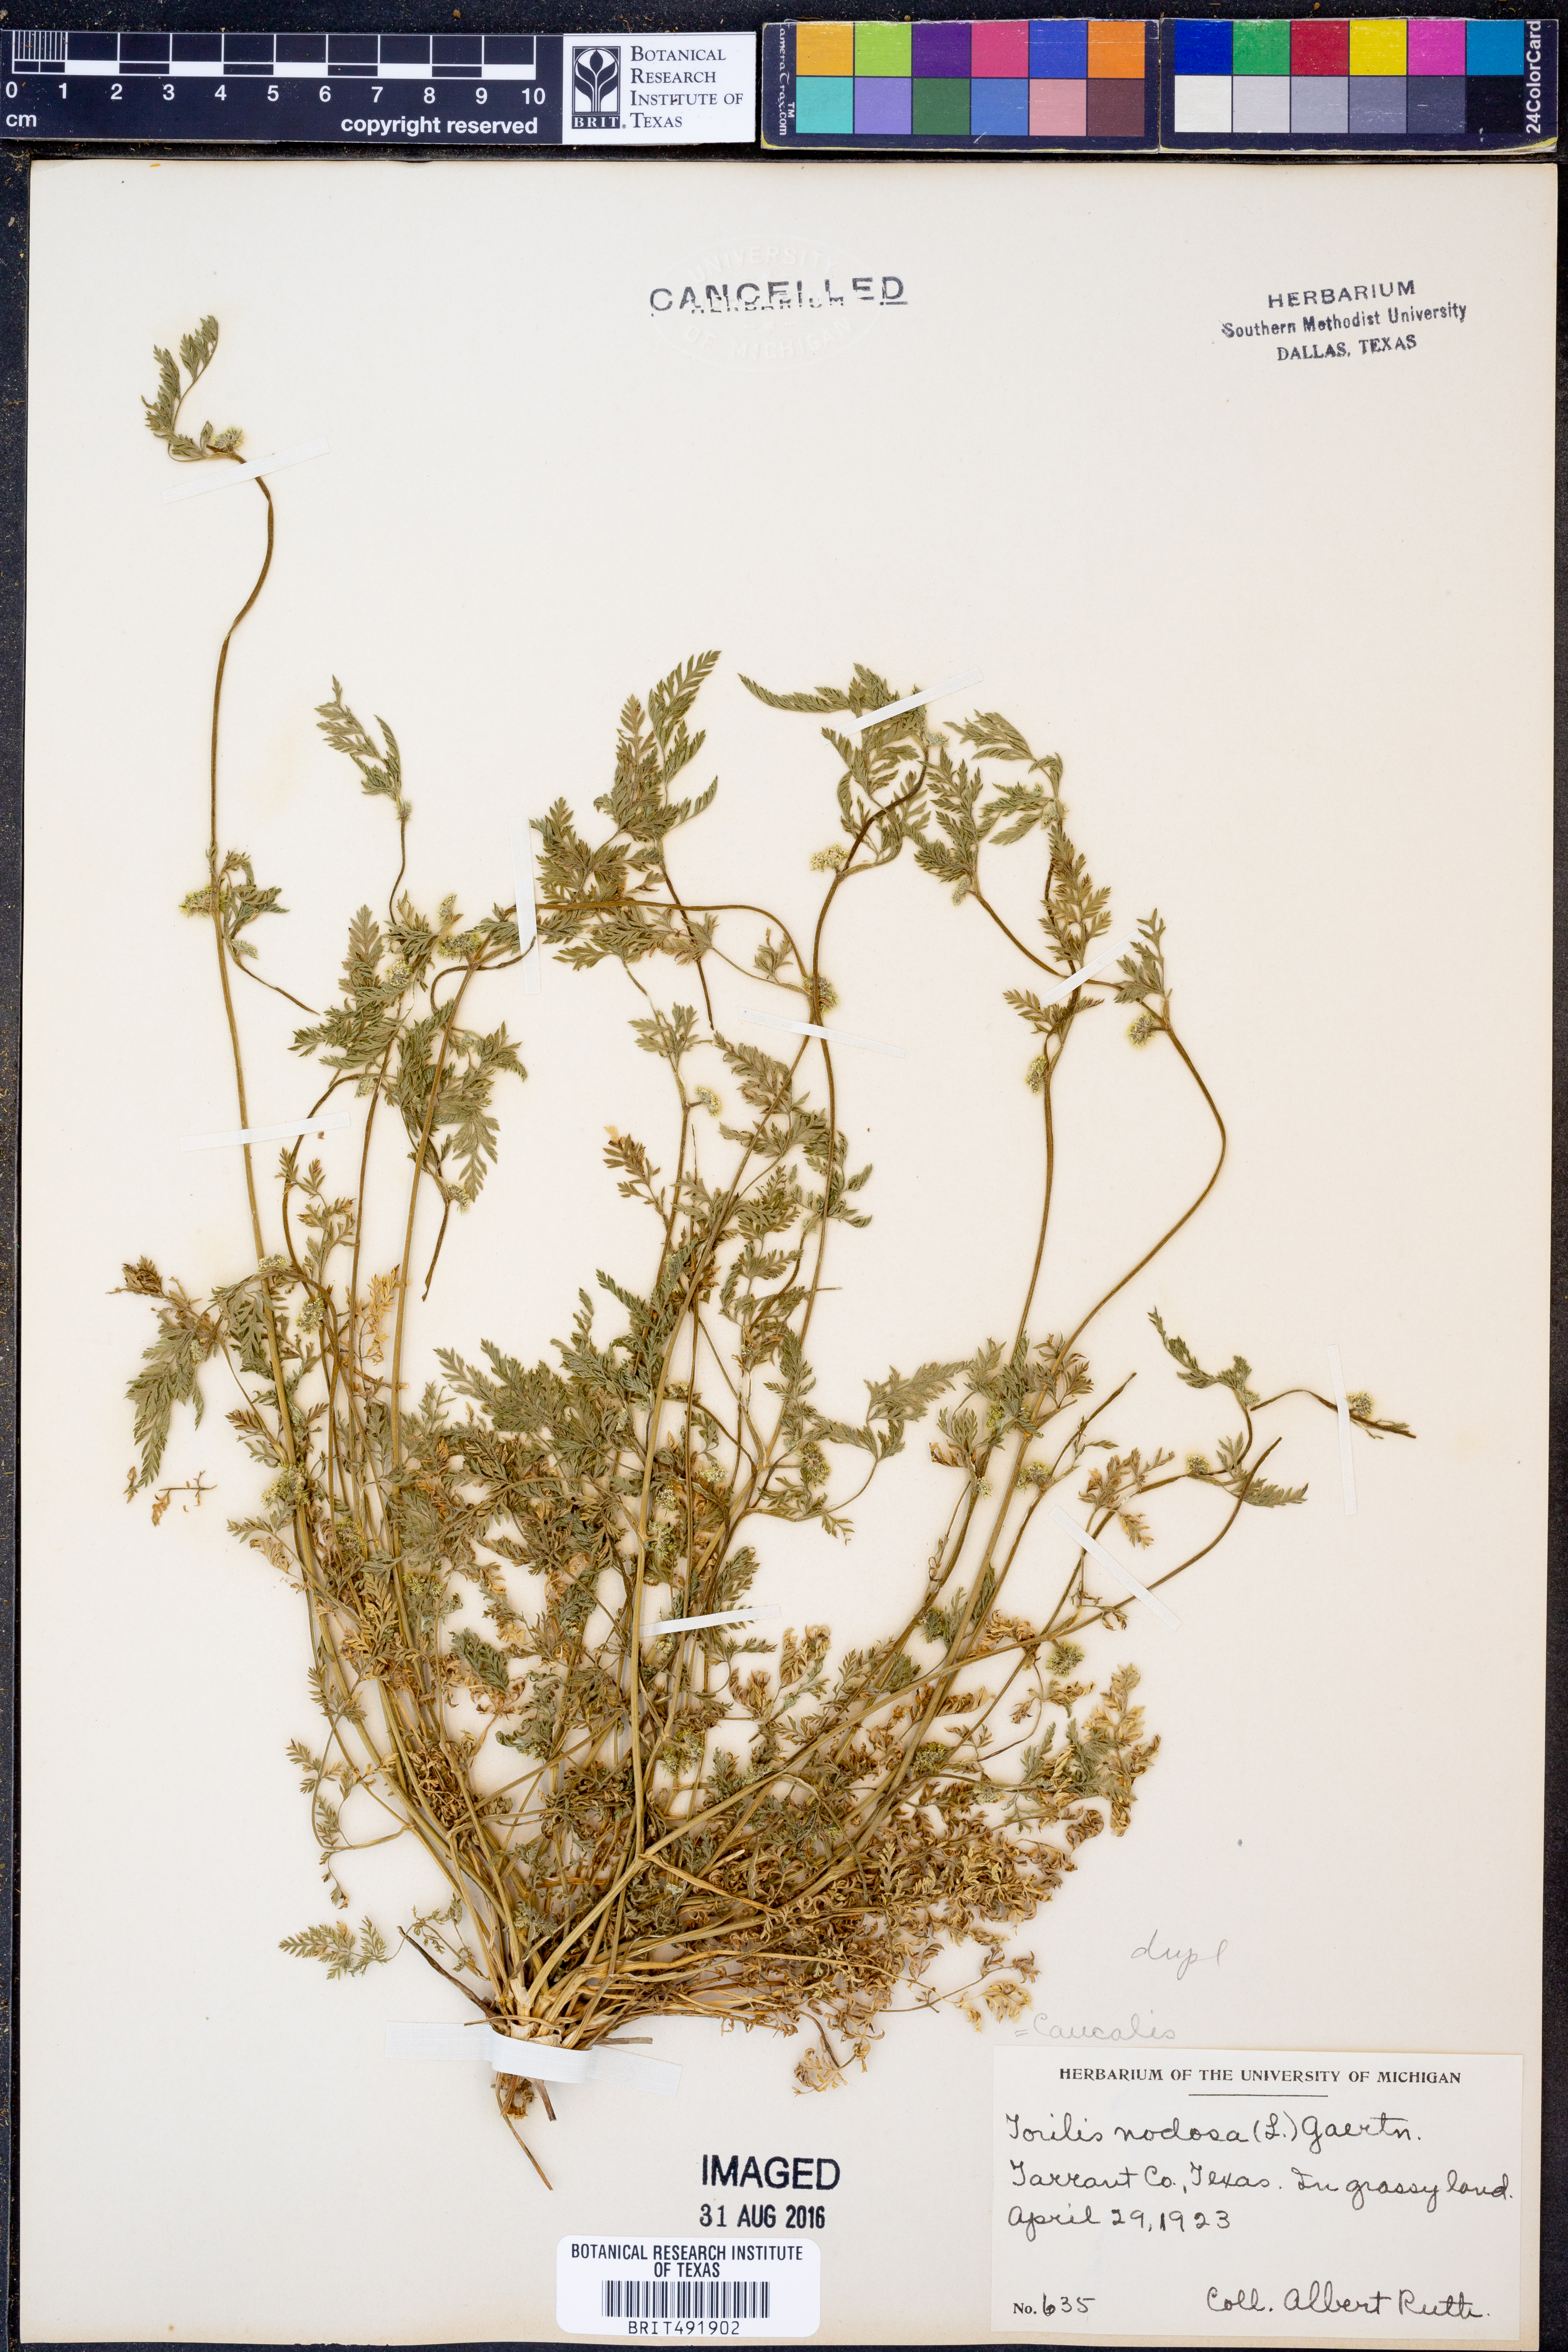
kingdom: Plantae
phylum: Tracheophyta
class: Magnoliopsida
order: Apiales
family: Apiaceae
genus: Torilis
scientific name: Torilis nodosa
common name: Knotted hedge-parsley
